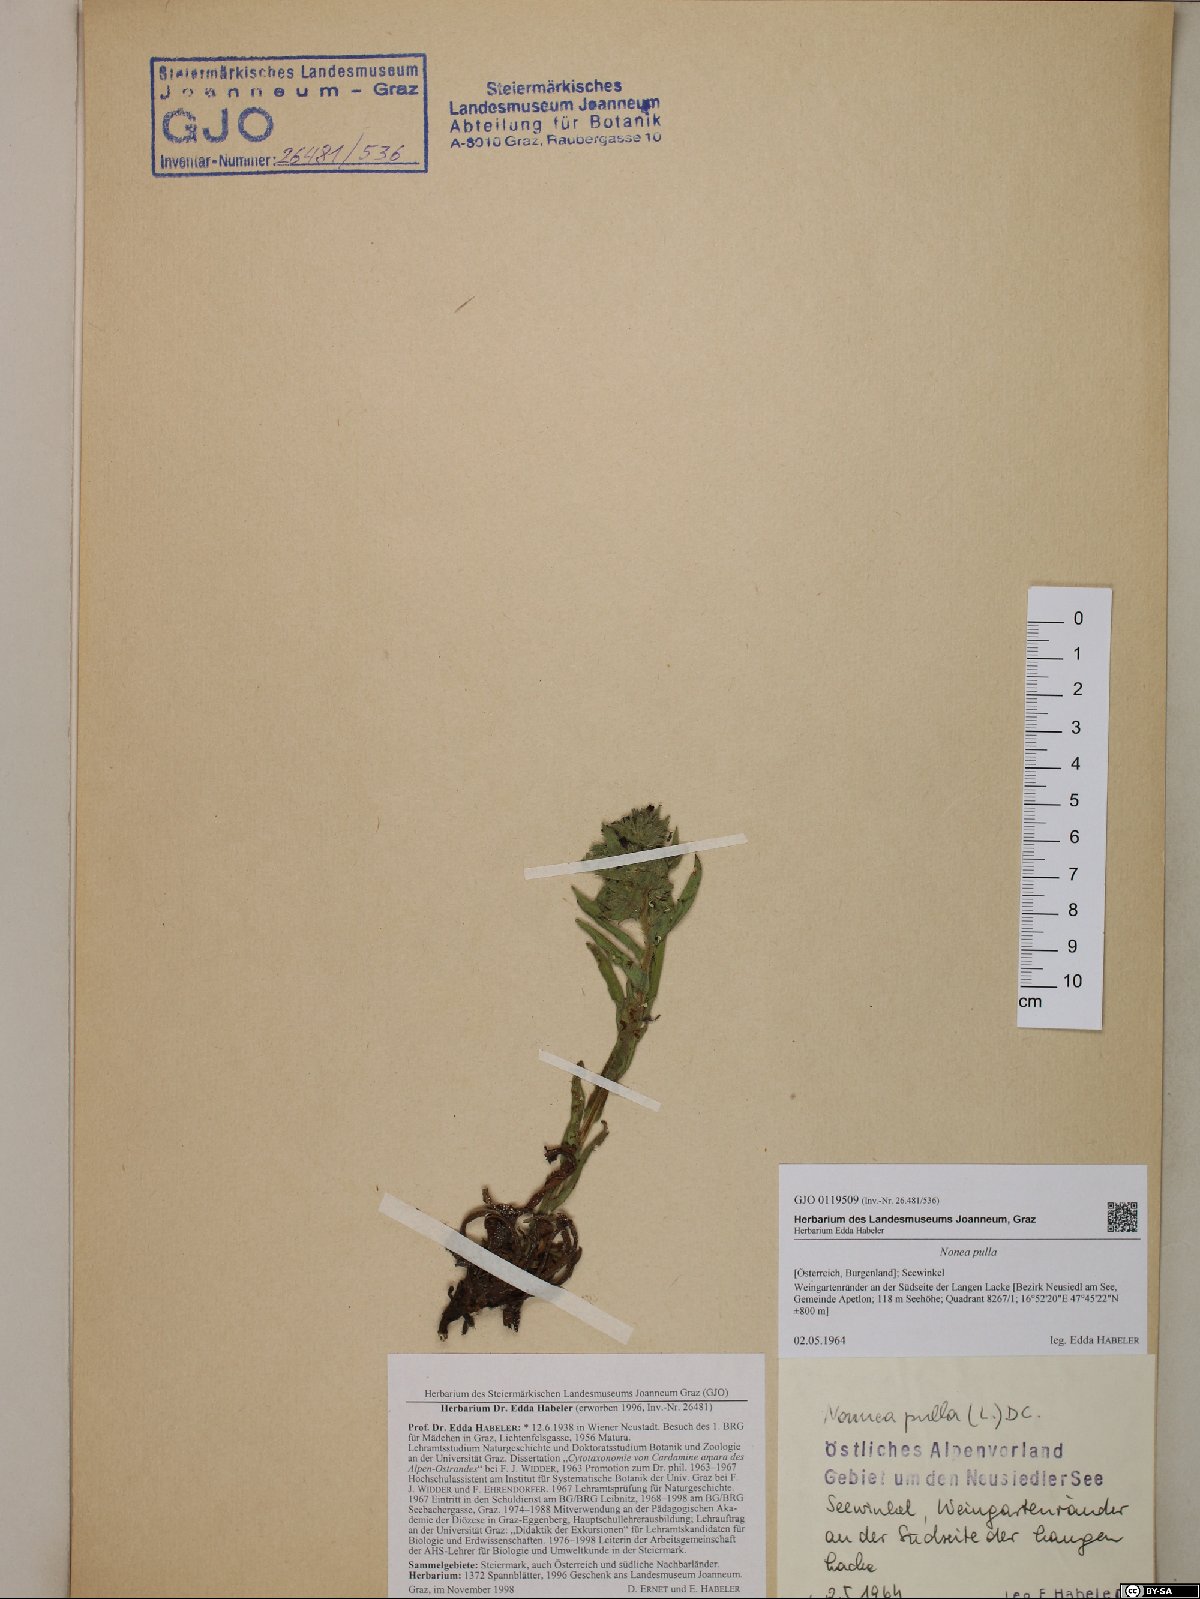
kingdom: Plantae
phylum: Tracheophyta
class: Magnoliopsida
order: Boraginales
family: Boraginaceae
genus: Nonea
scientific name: Nonea pulla
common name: Brown nonea
